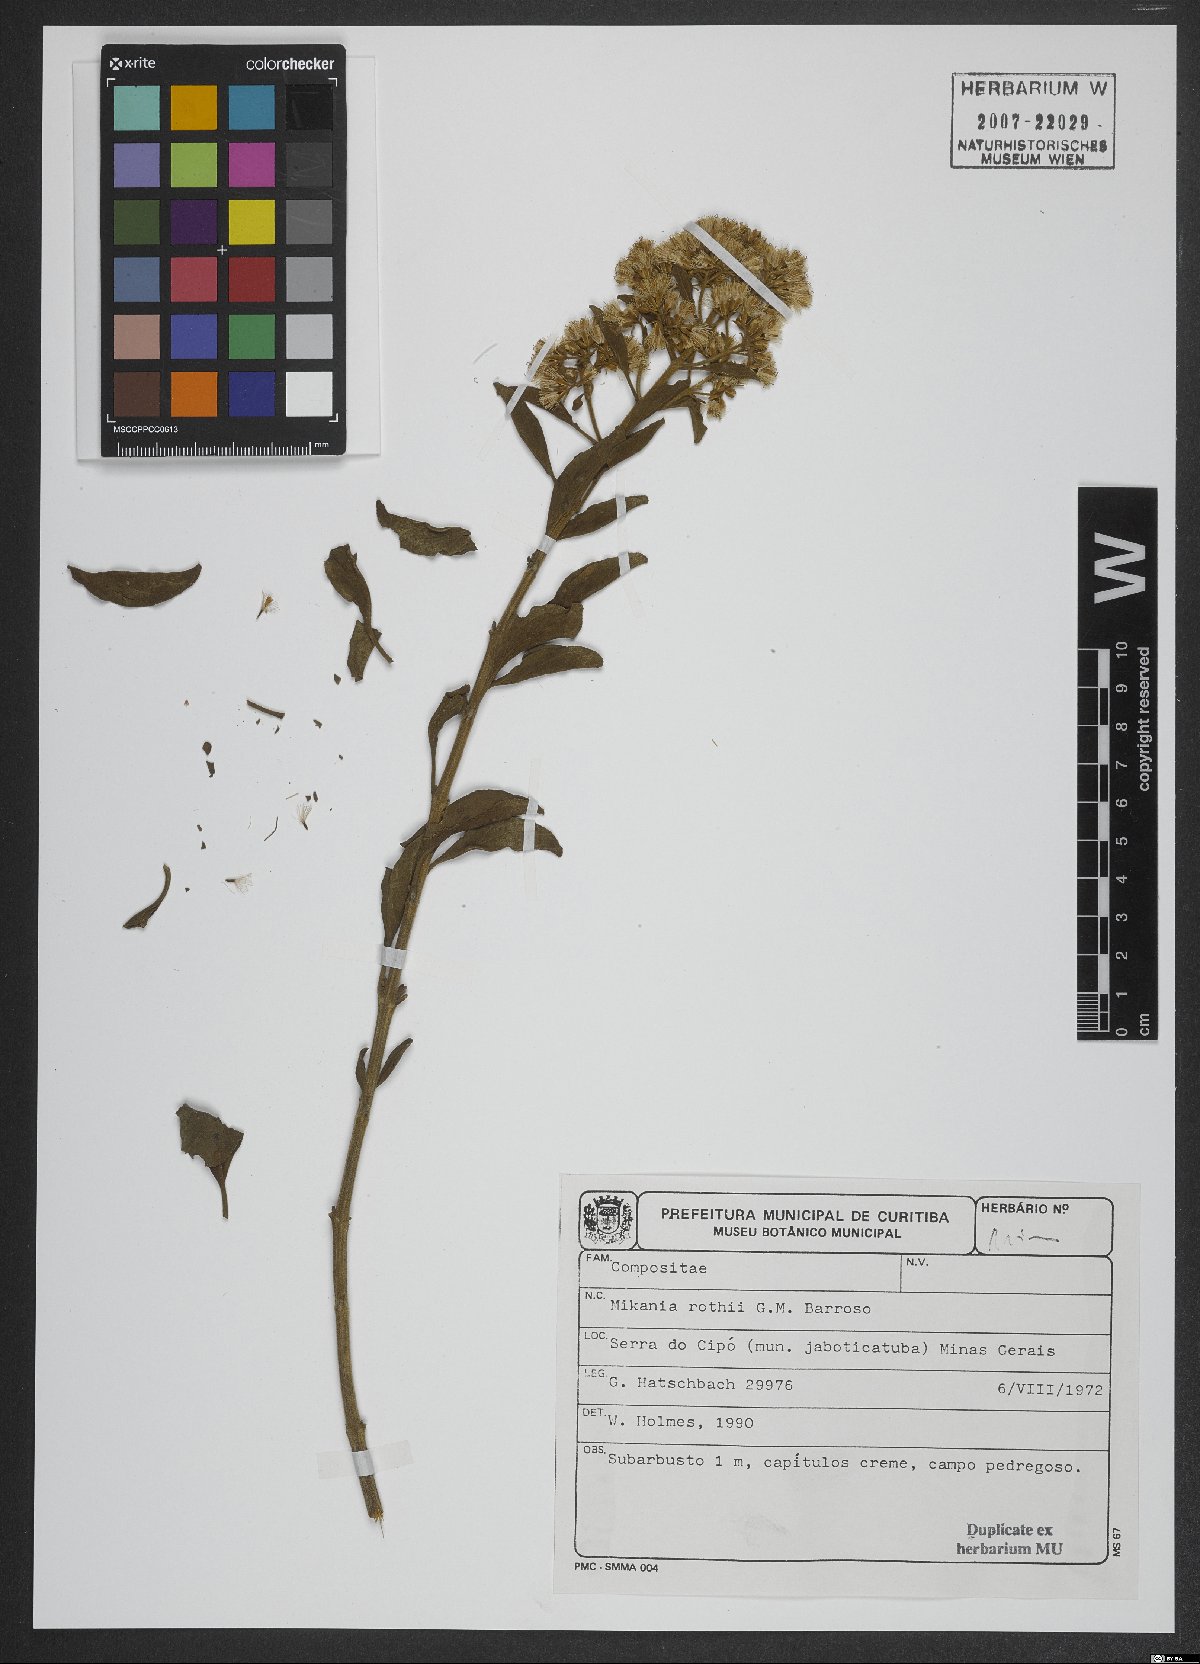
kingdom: Plantae
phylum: Tracheophyta
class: Magnoliopsida
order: Asterales
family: Asteraceae
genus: Mikania
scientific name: Mikania rothii
